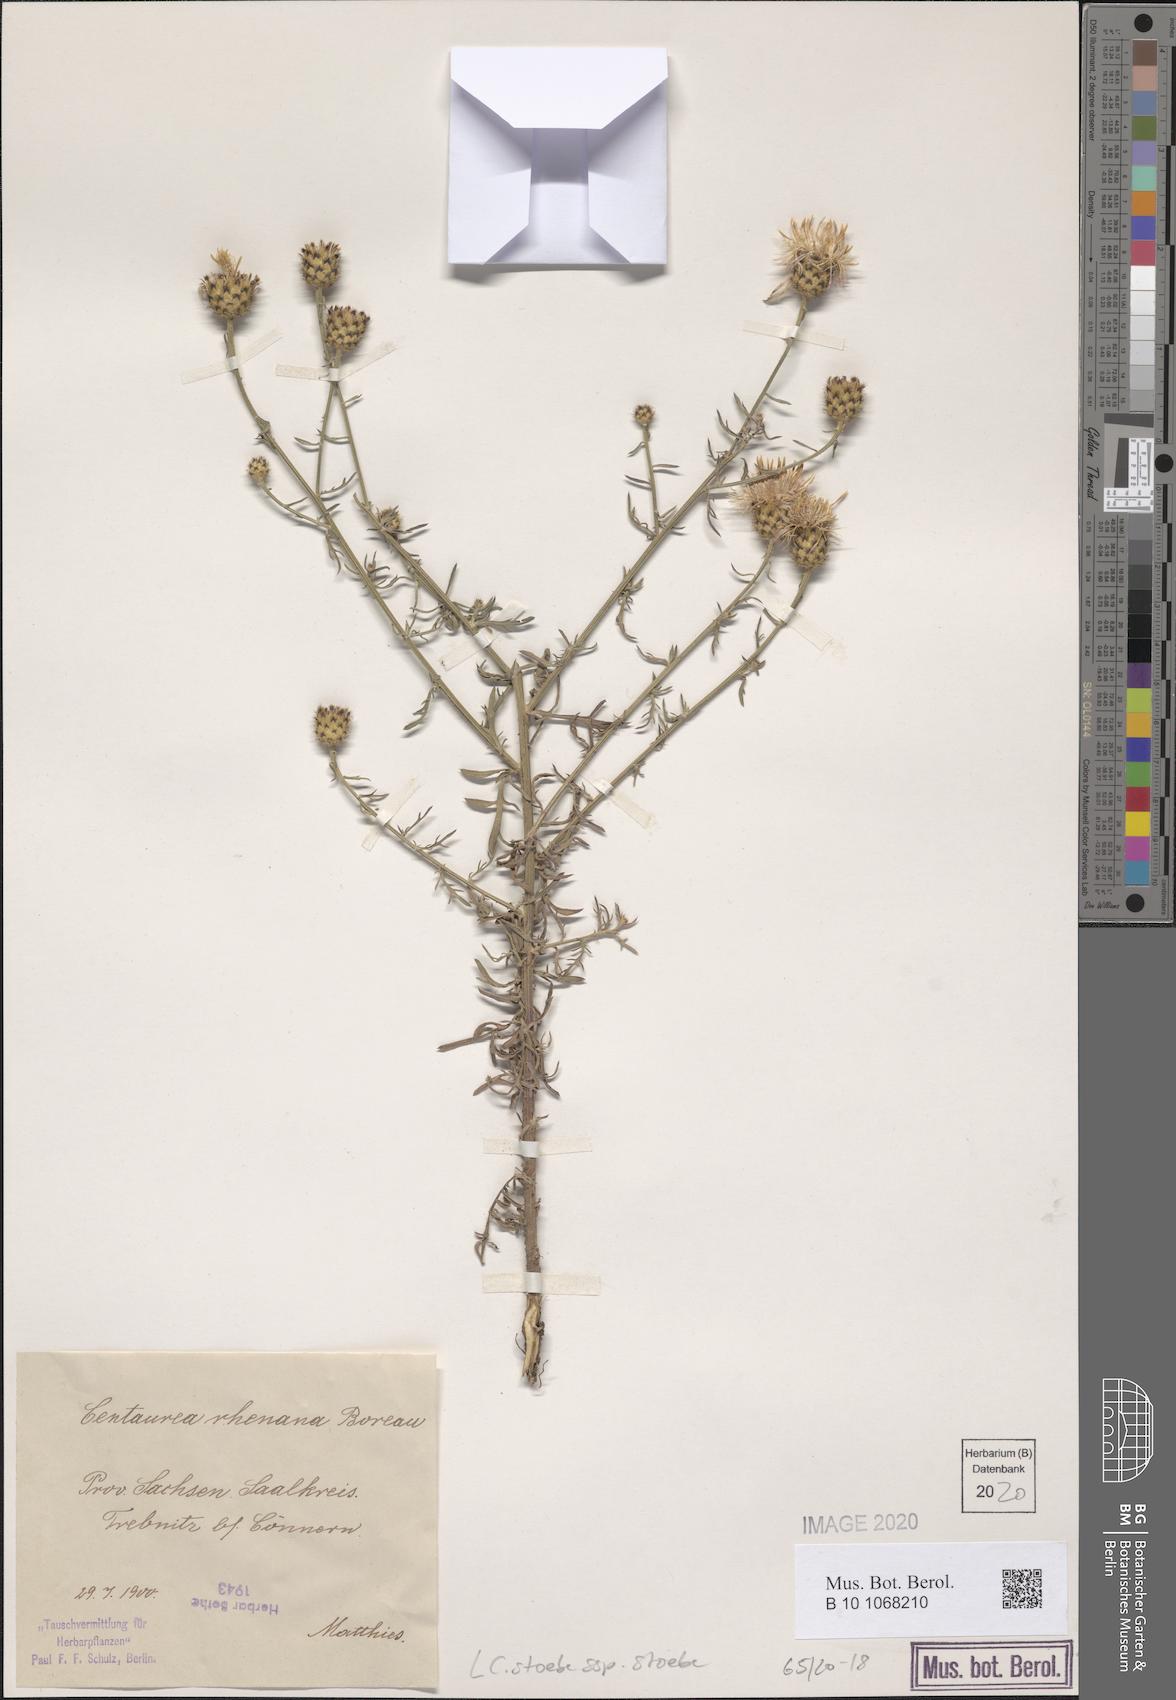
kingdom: Plantae
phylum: Tracheophyta
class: Magnoliopsida
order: Asterales
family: Asteraceae
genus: Centaurea
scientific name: Centaurea stoebe
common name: Spotted knapweed
